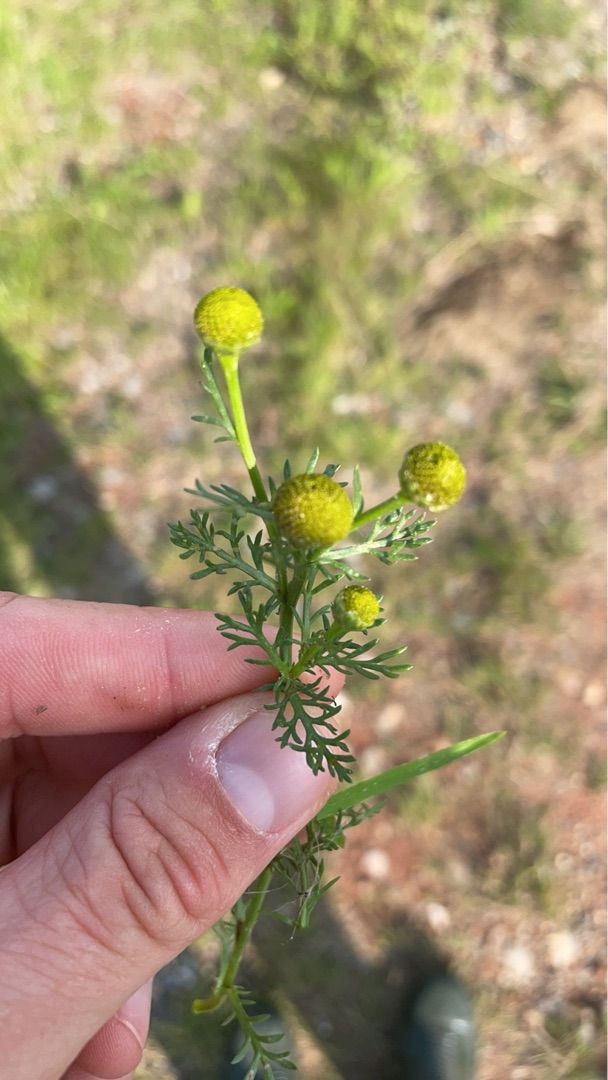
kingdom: Plantae
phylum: Tracheophyta
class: Magnoliopsida
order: Asterales
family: Asteraceae
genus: Matricaria
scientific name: Matricaria discoidea
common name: Skive-kamille
